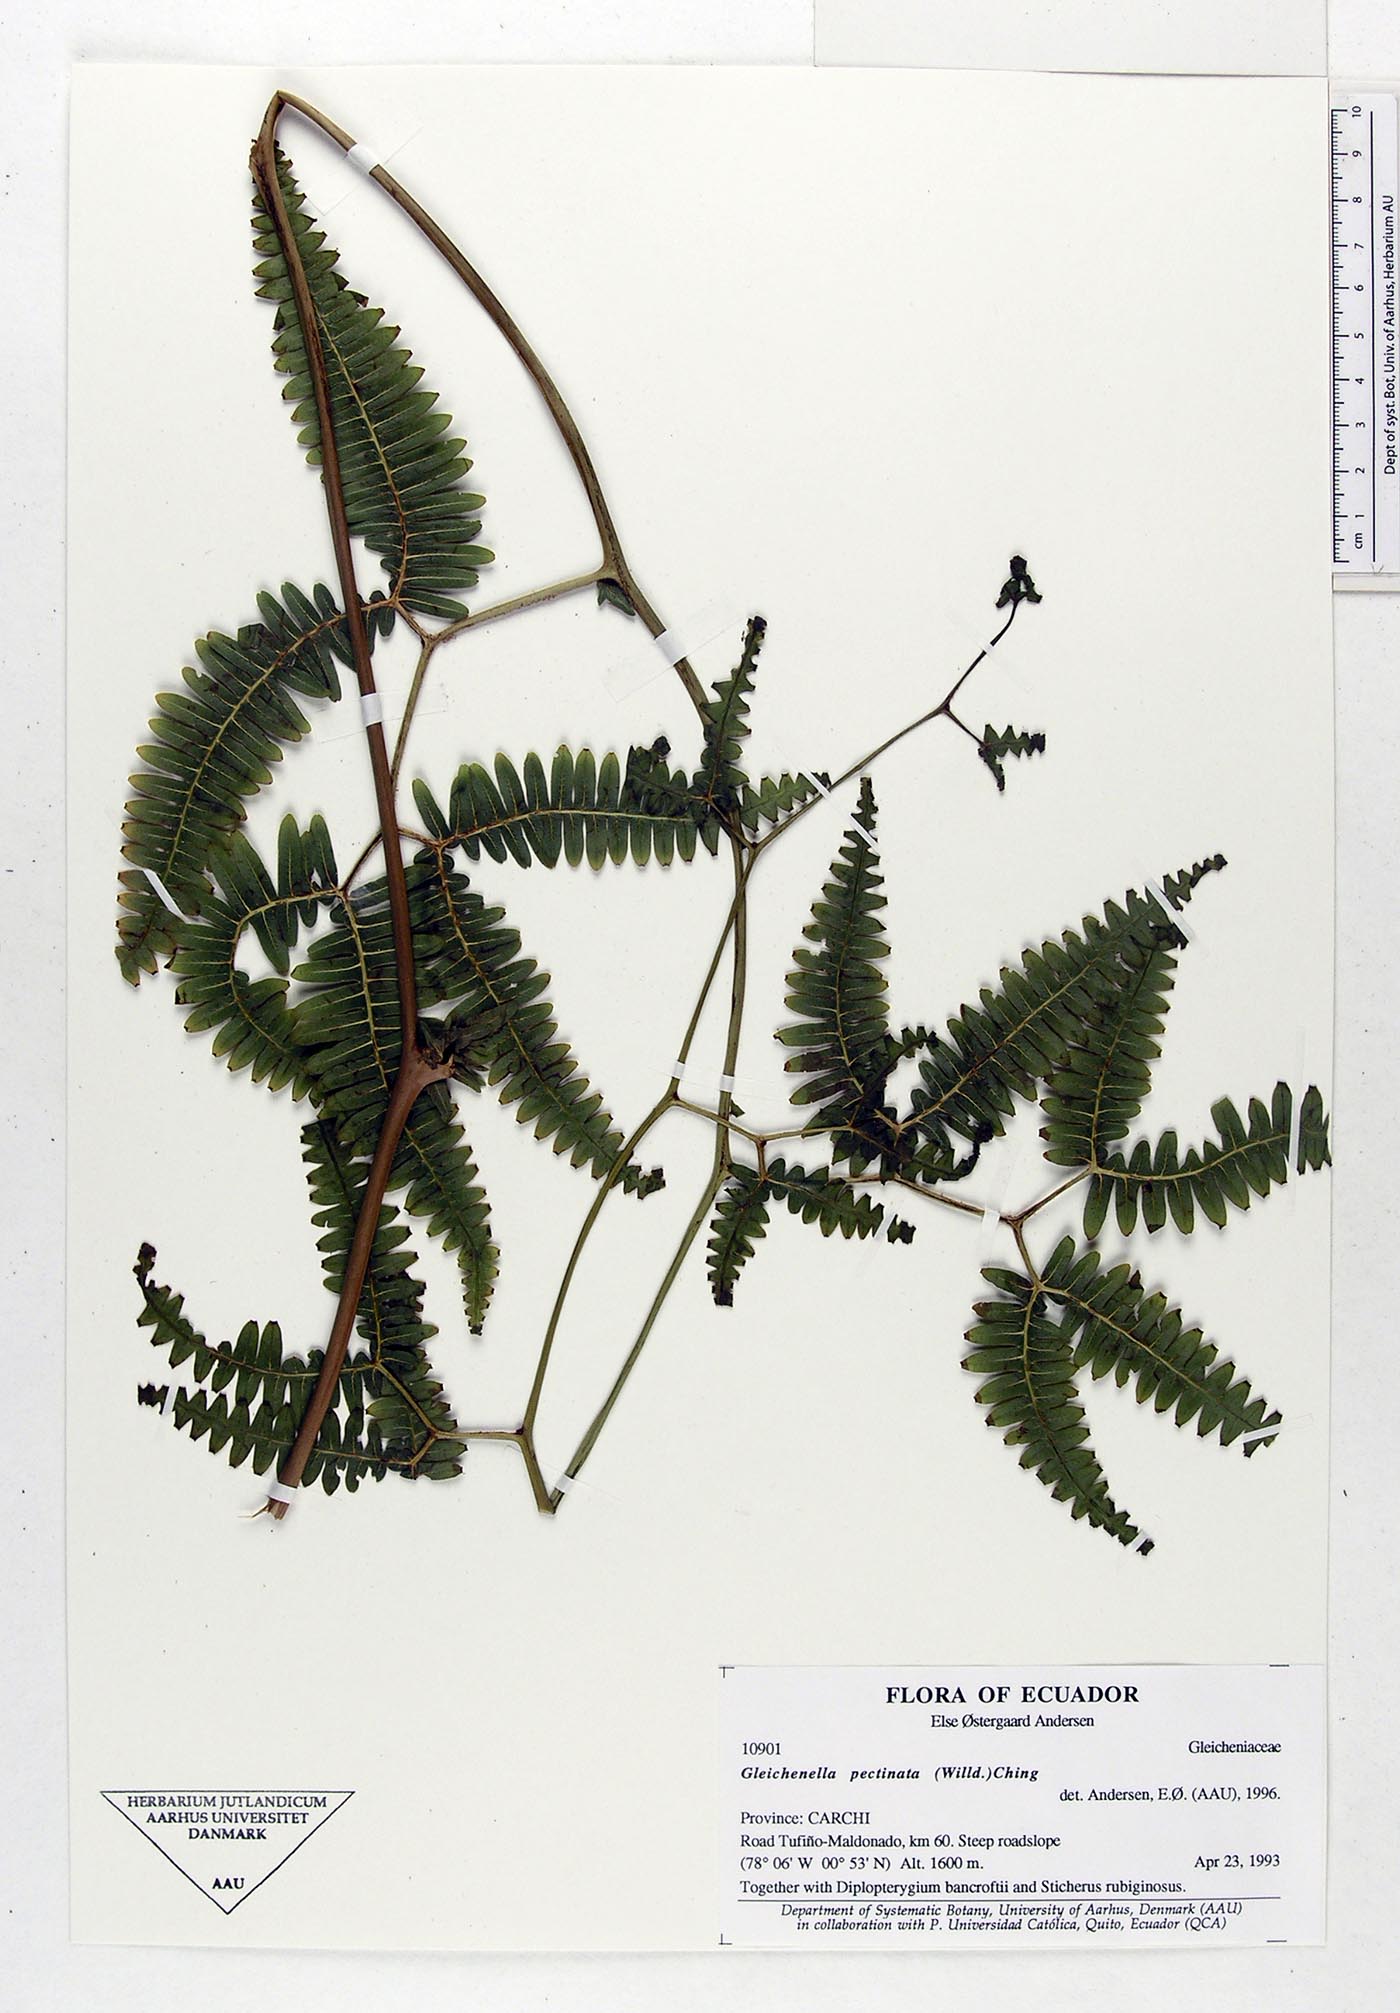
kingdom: Plantae
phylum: Tracheophyta
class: Polypodiopsida
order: Gleicheniales
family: Gleicheniaceae
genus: Gleichenella
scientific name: Gleichenella pectinata
